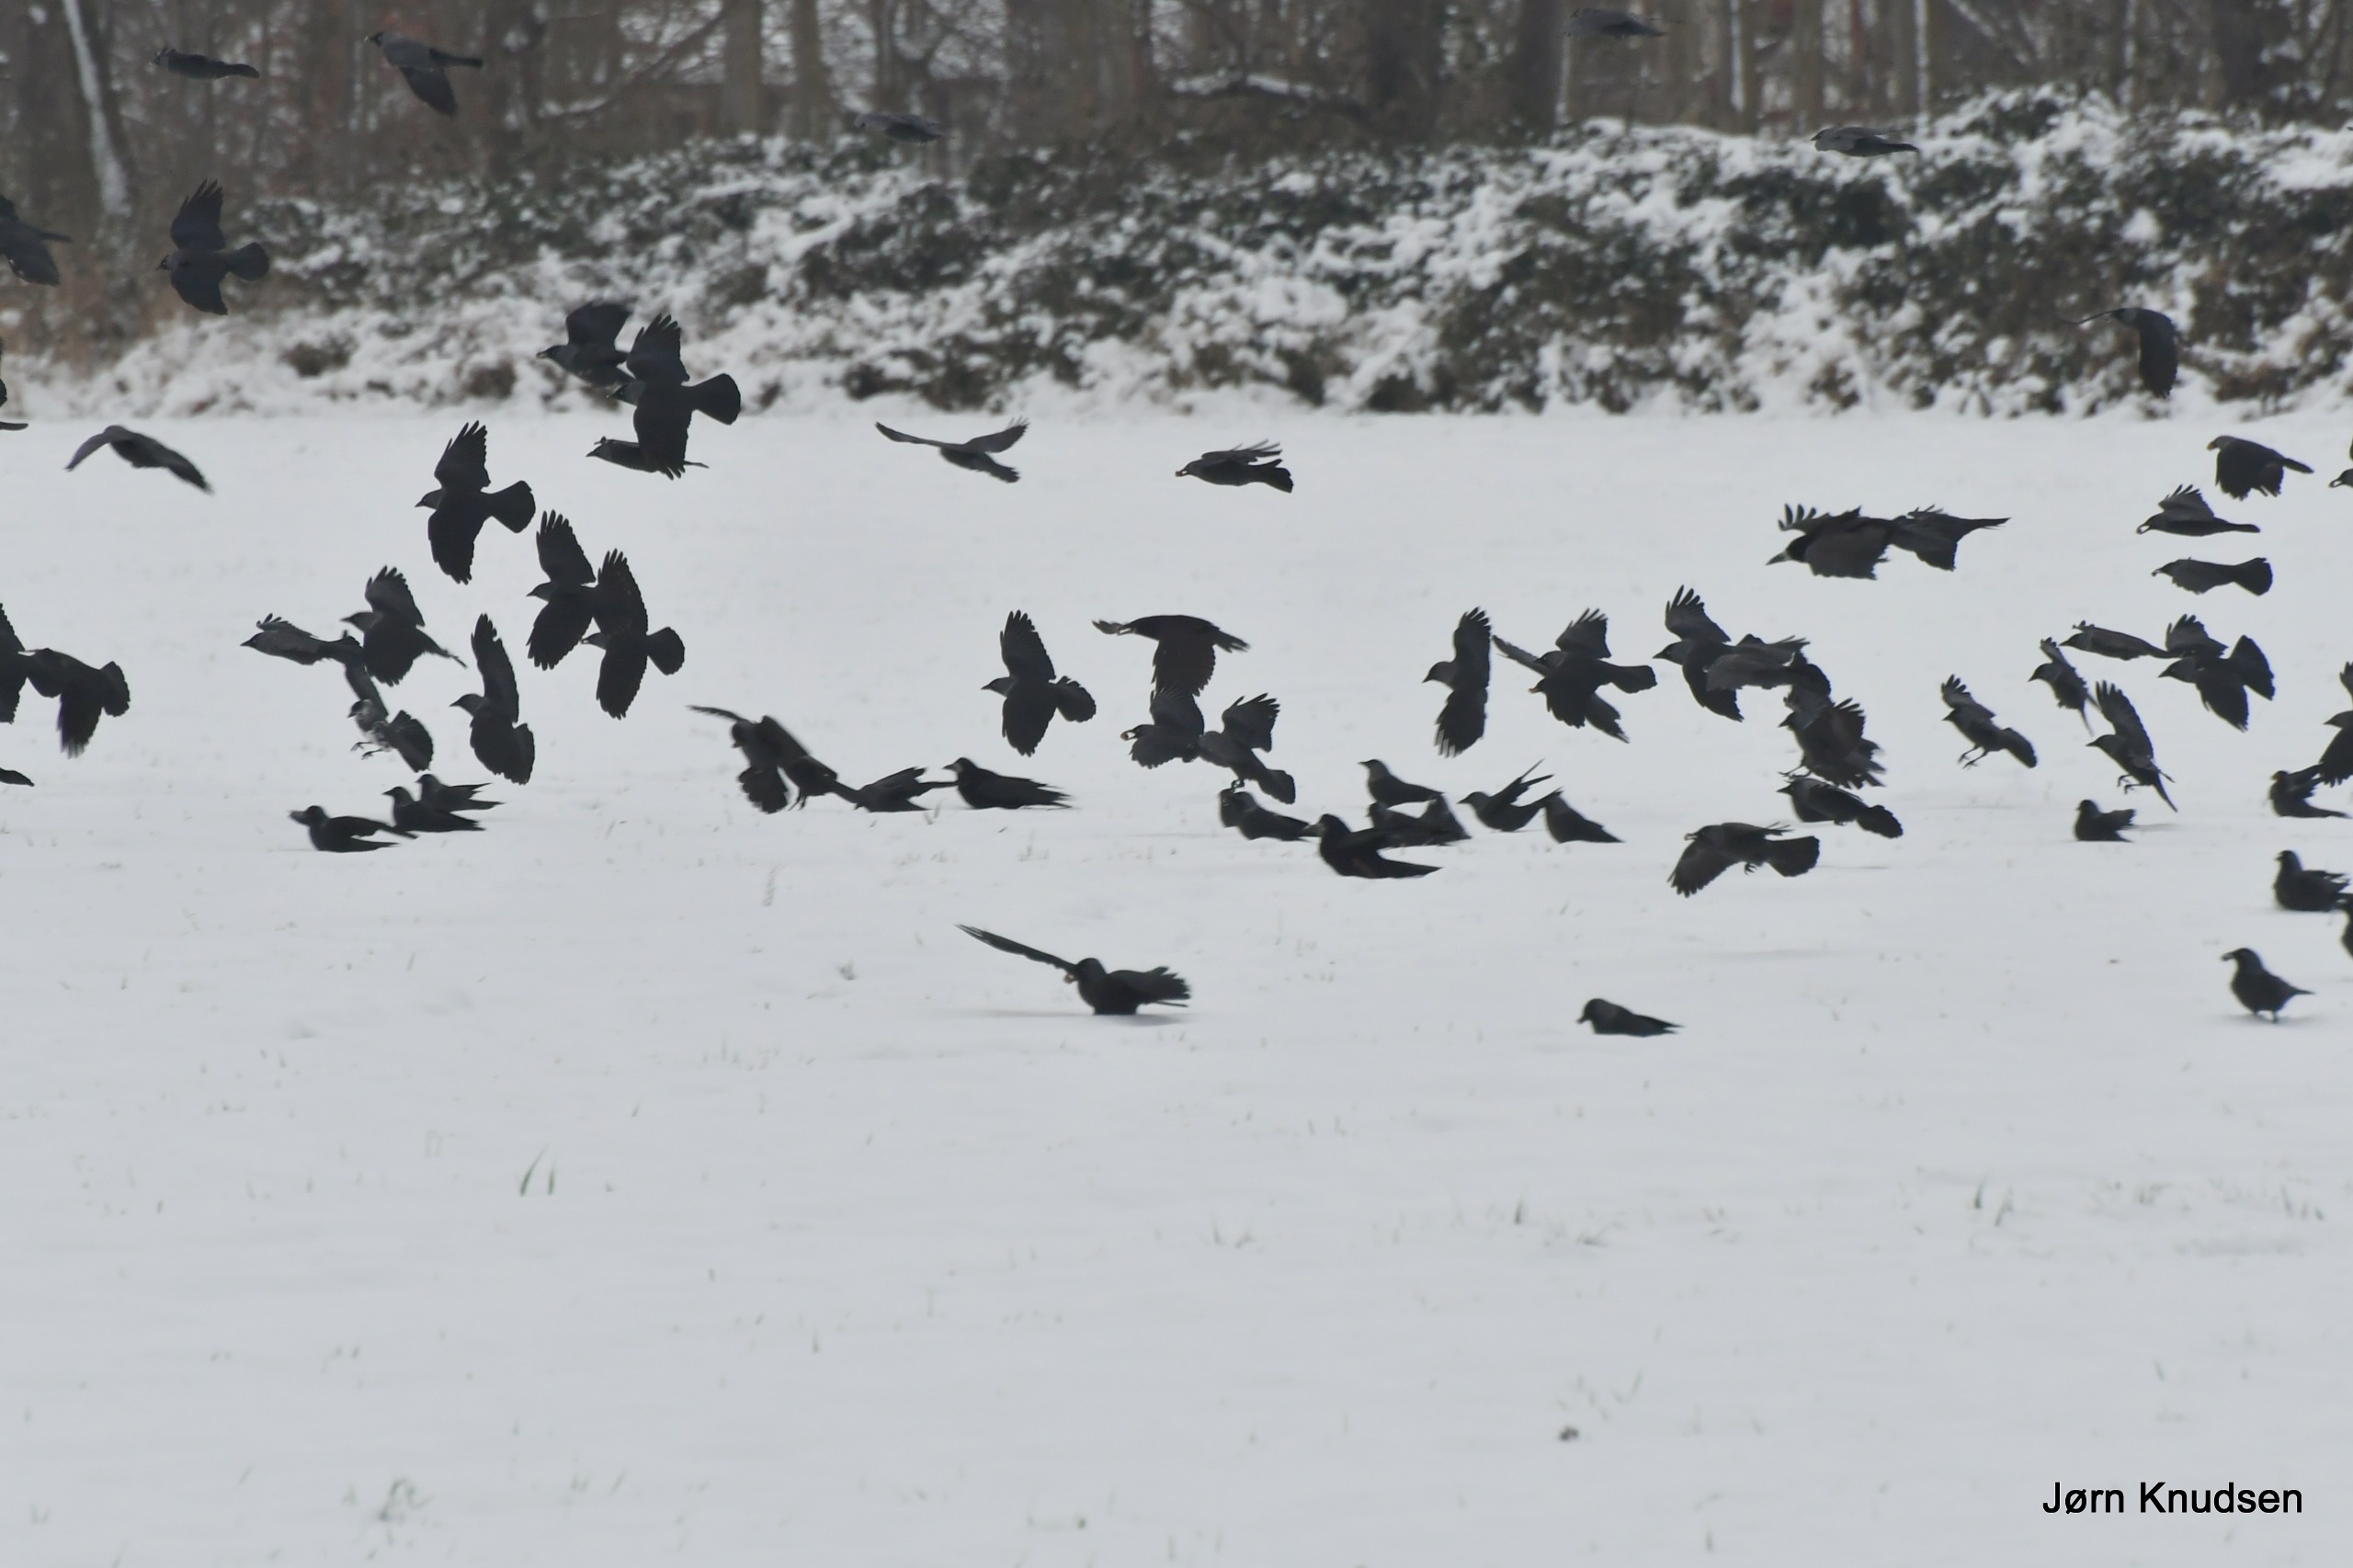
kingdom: Animalia
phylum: Chordata
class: Aves
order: Passeriformes
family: Corvidae
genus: Coloeus
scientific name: Coloeus monedula
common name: Allike
